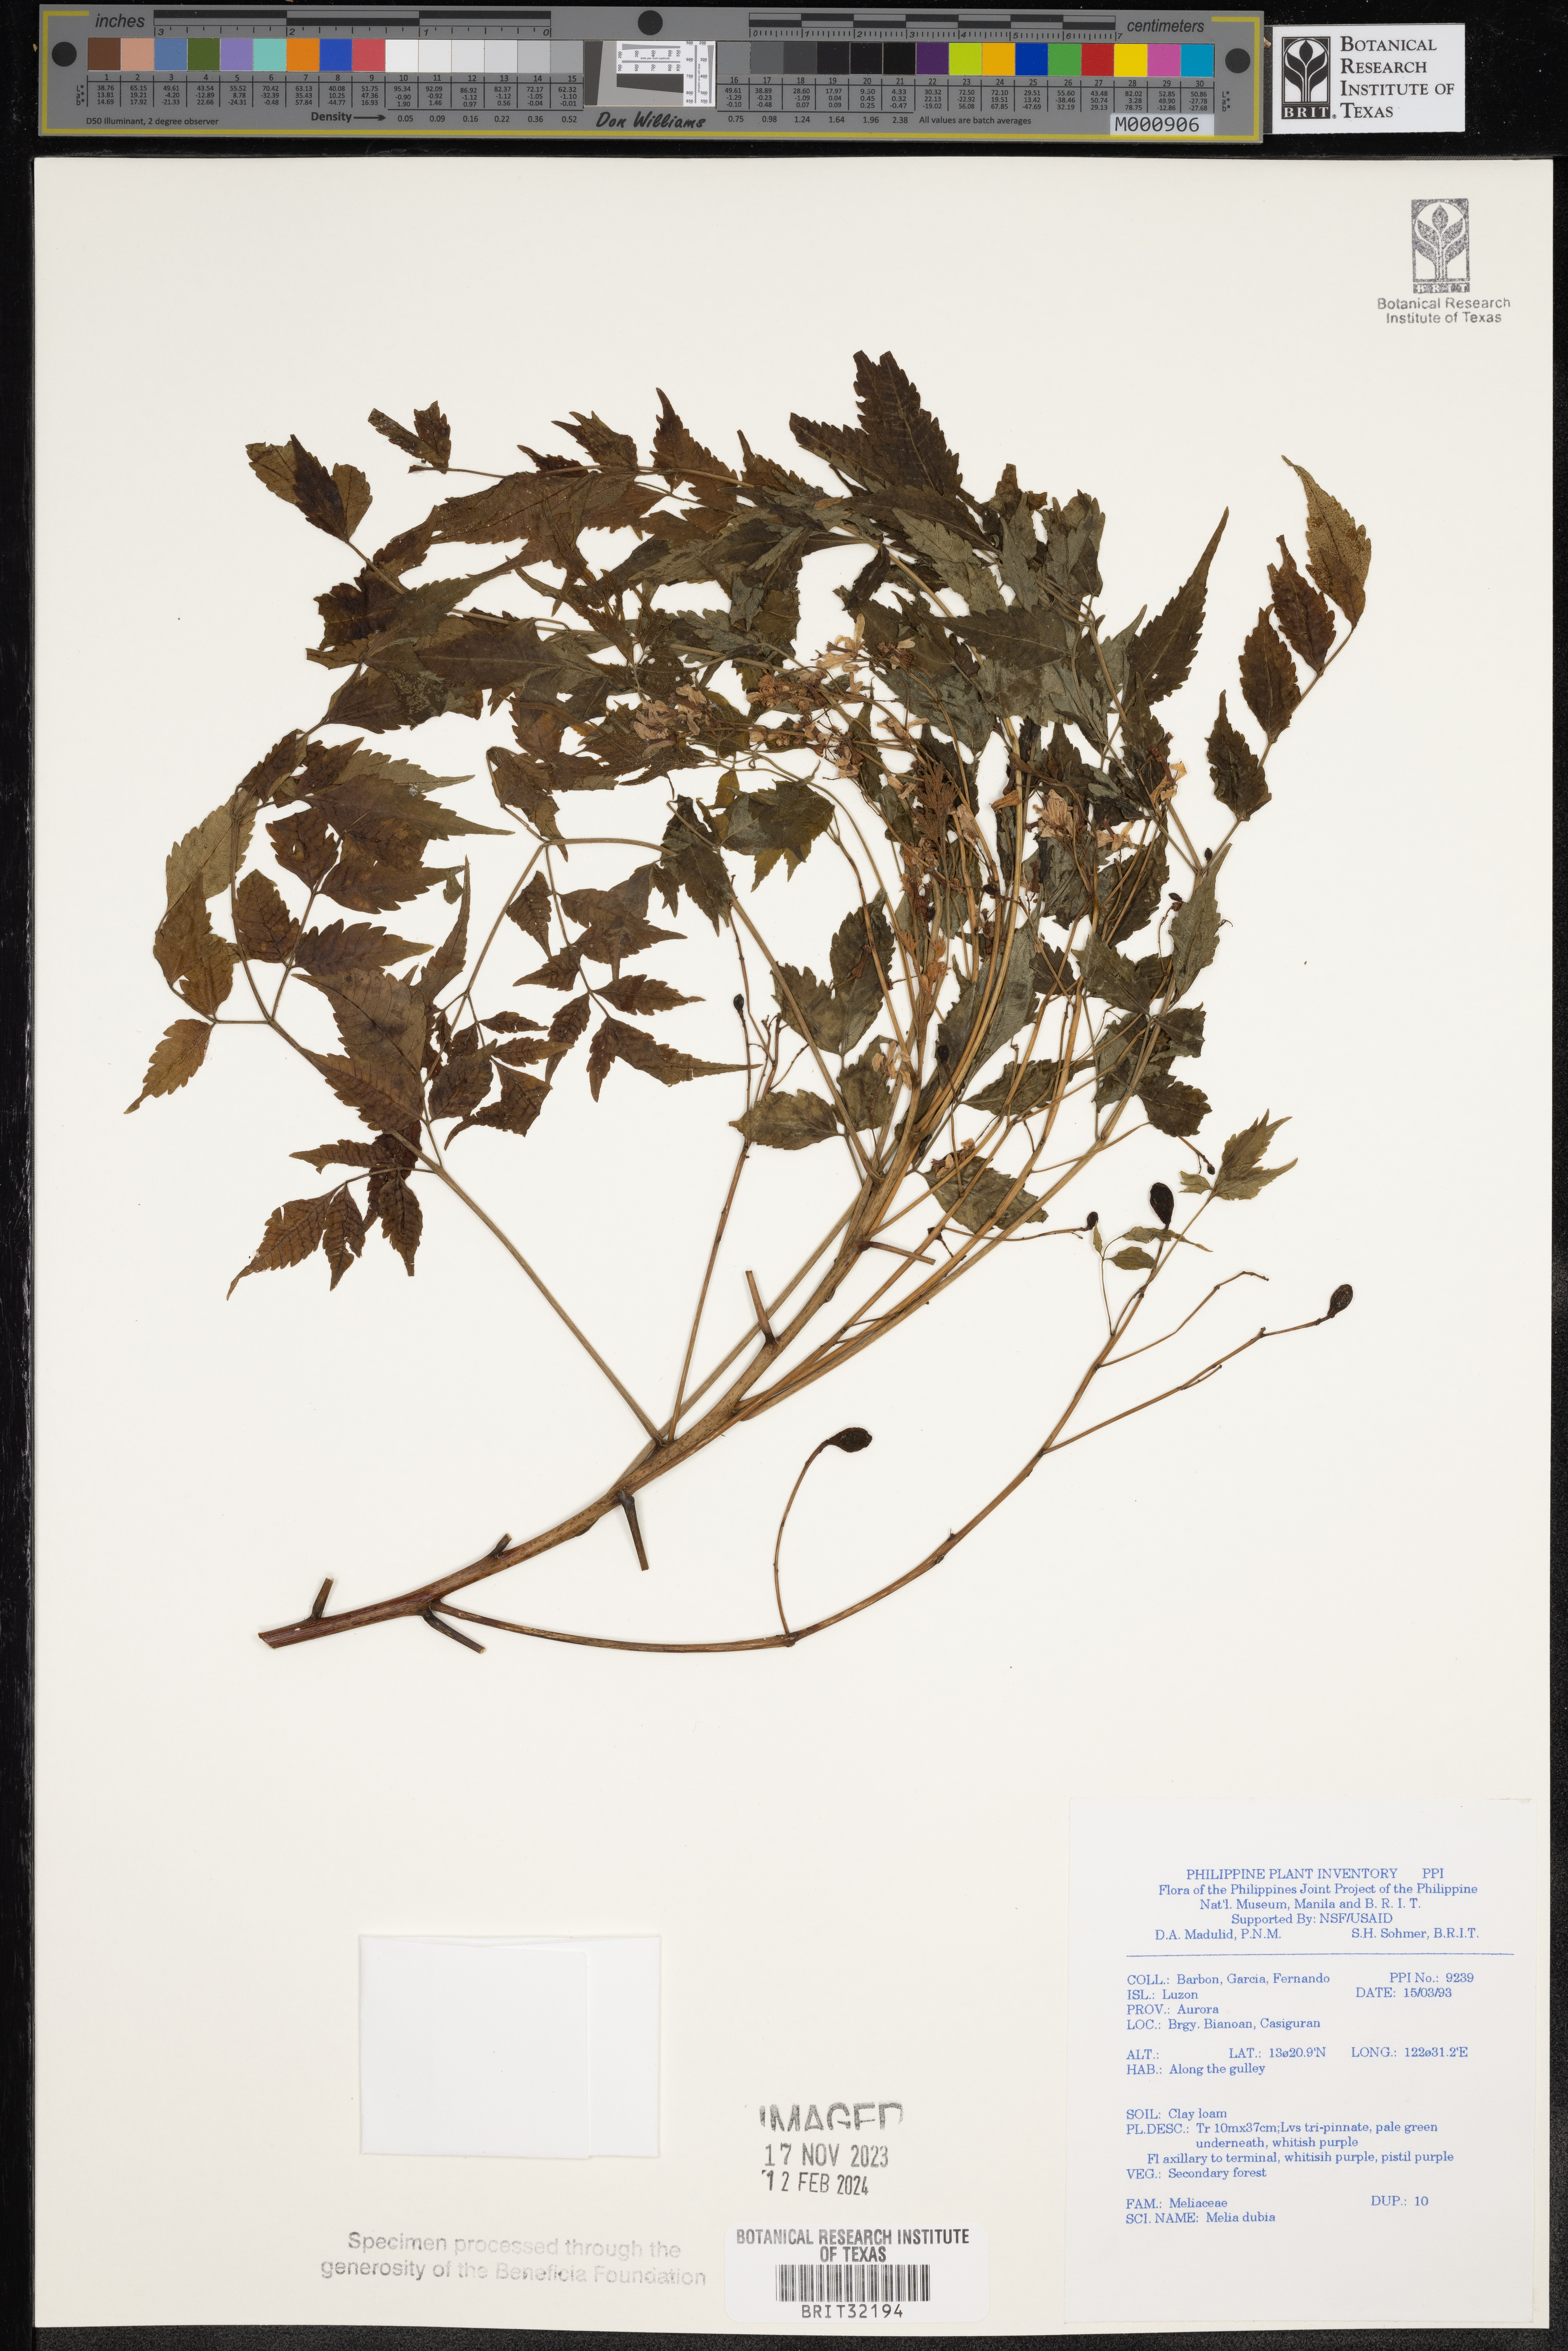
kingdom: Plantae
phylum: Tracheophyta
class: Magnoliopsida
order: Sapindales
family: Meliaceae
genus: Melia
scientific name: Melia azedarach
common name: Chinaberrytree
